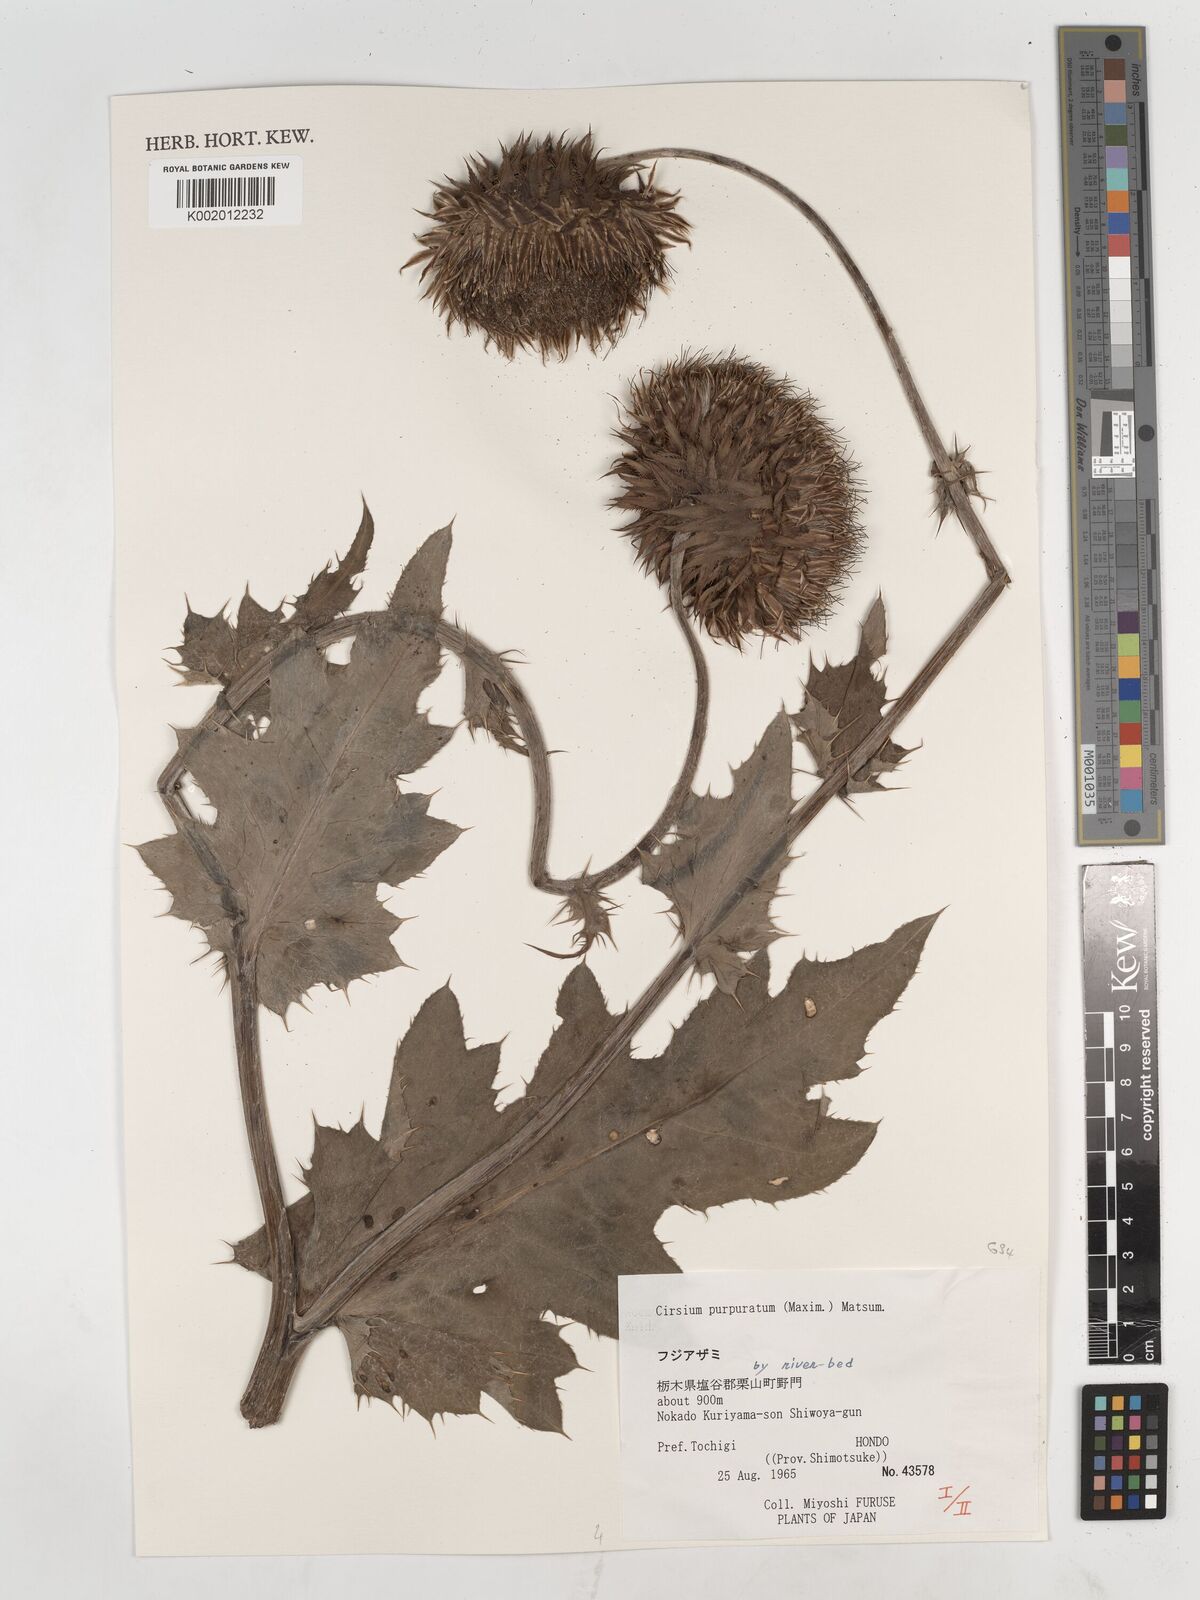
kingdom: Plantae
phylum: Tracheophyta
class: Magnoliopsida
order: Asterales
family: Asteraceae
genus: Cirsium
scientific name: Cirsium purpuratum
